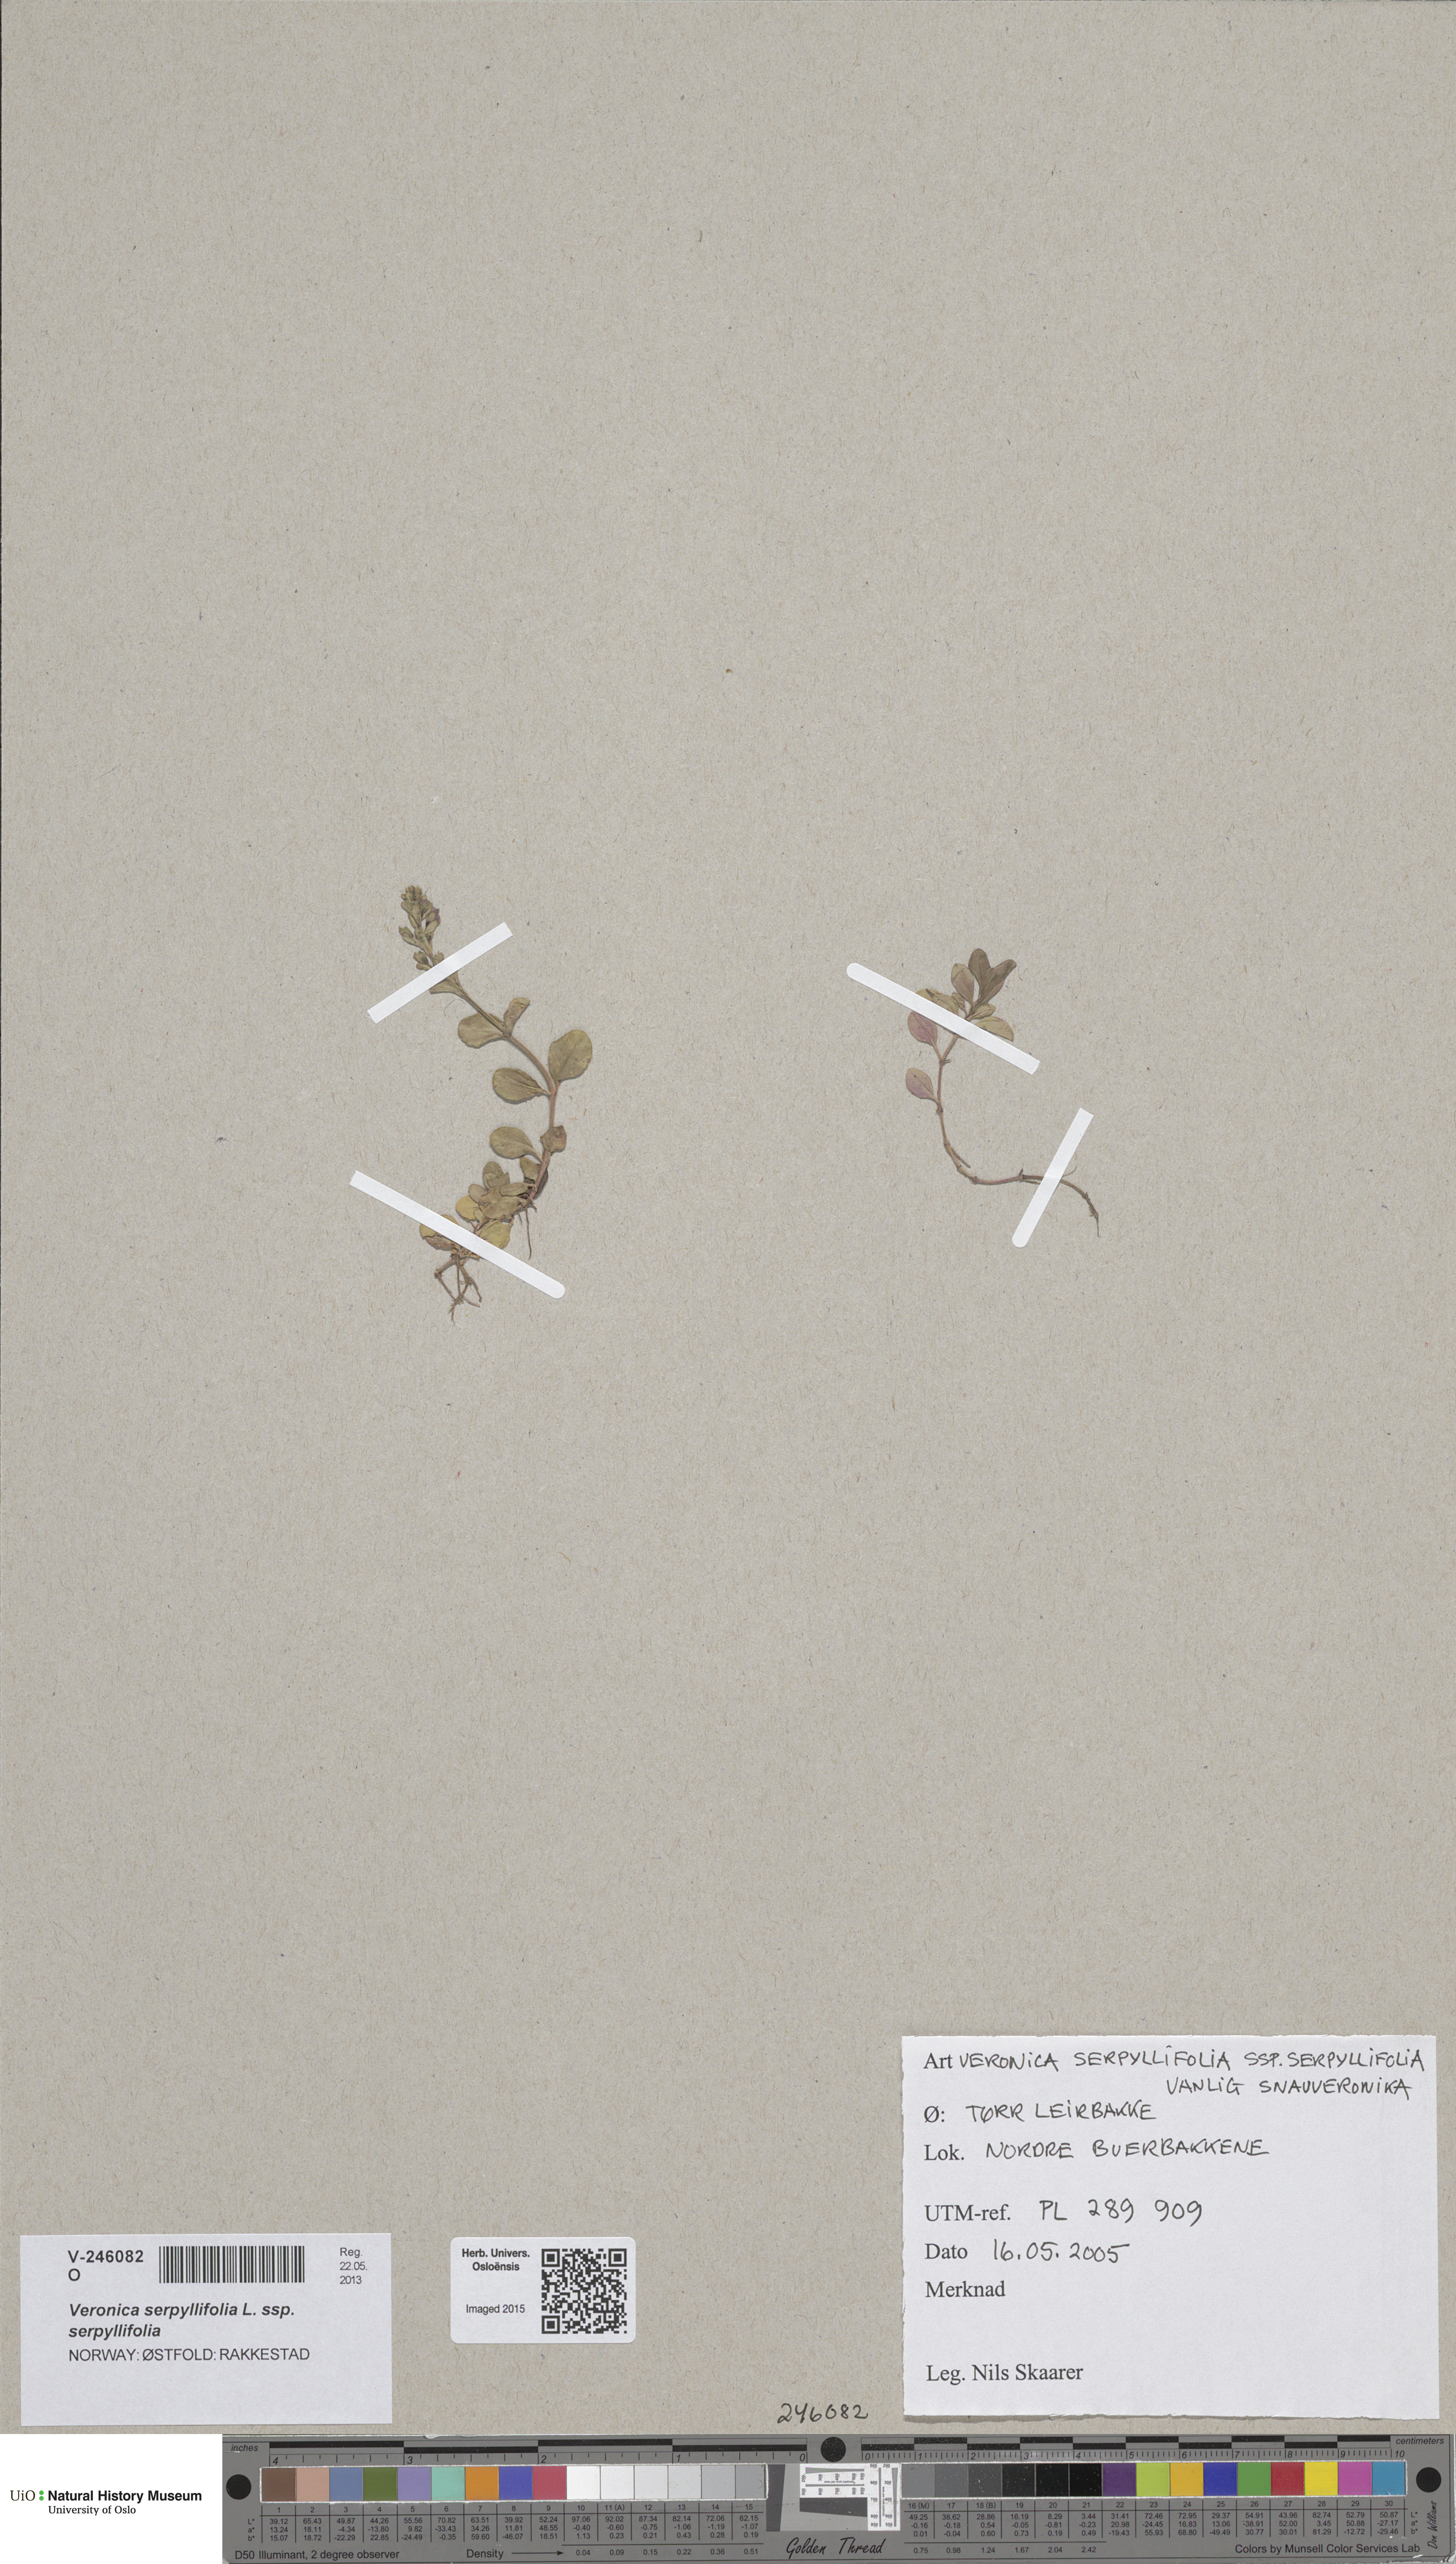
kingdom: Plantae
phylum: Tracheophyta
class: Magnoliopsida
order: Lamiales
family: Plantaginaceae
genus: Veronica
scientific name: Veronica serpyllifolia
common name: Thyme-leaved speedwell
